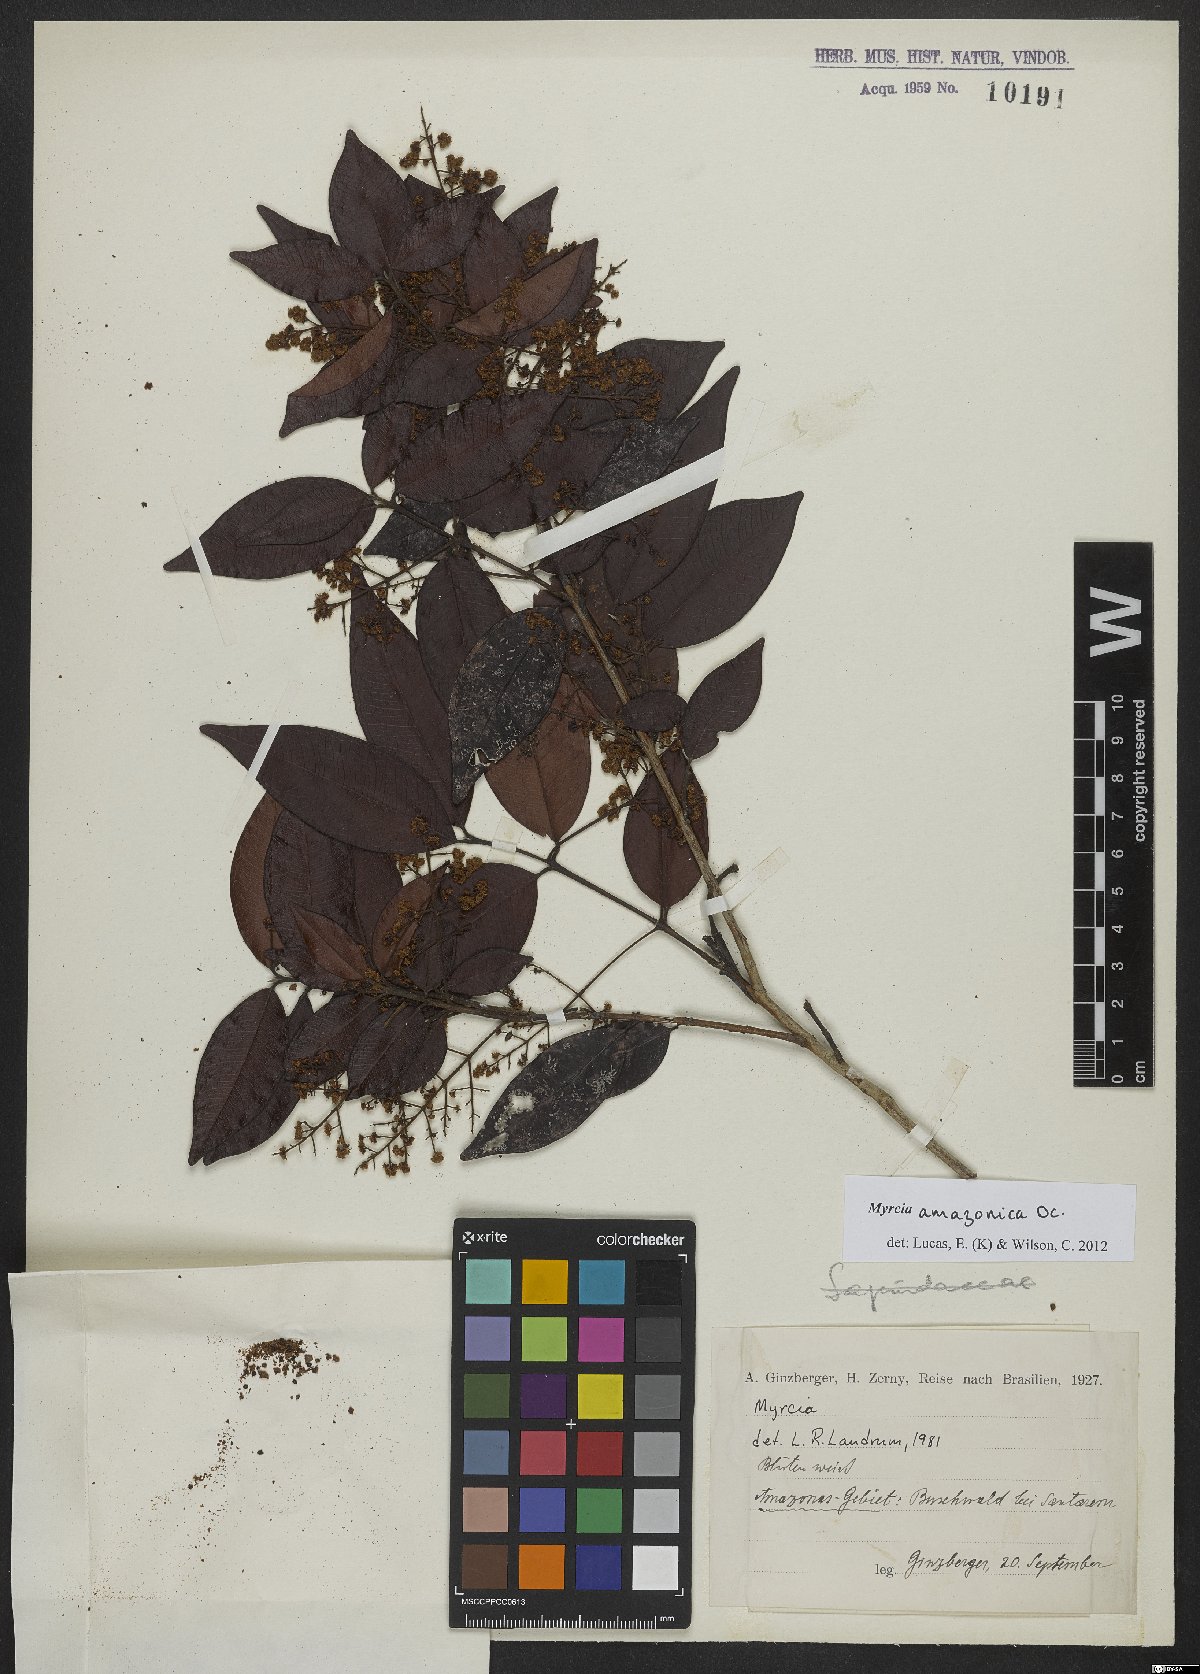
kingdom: Plantae
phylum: Tracheophyta
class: Magnoliopsida
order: Myrtales
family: Myrtaceae
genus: Myrcia
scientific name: Myrcia amazonica
